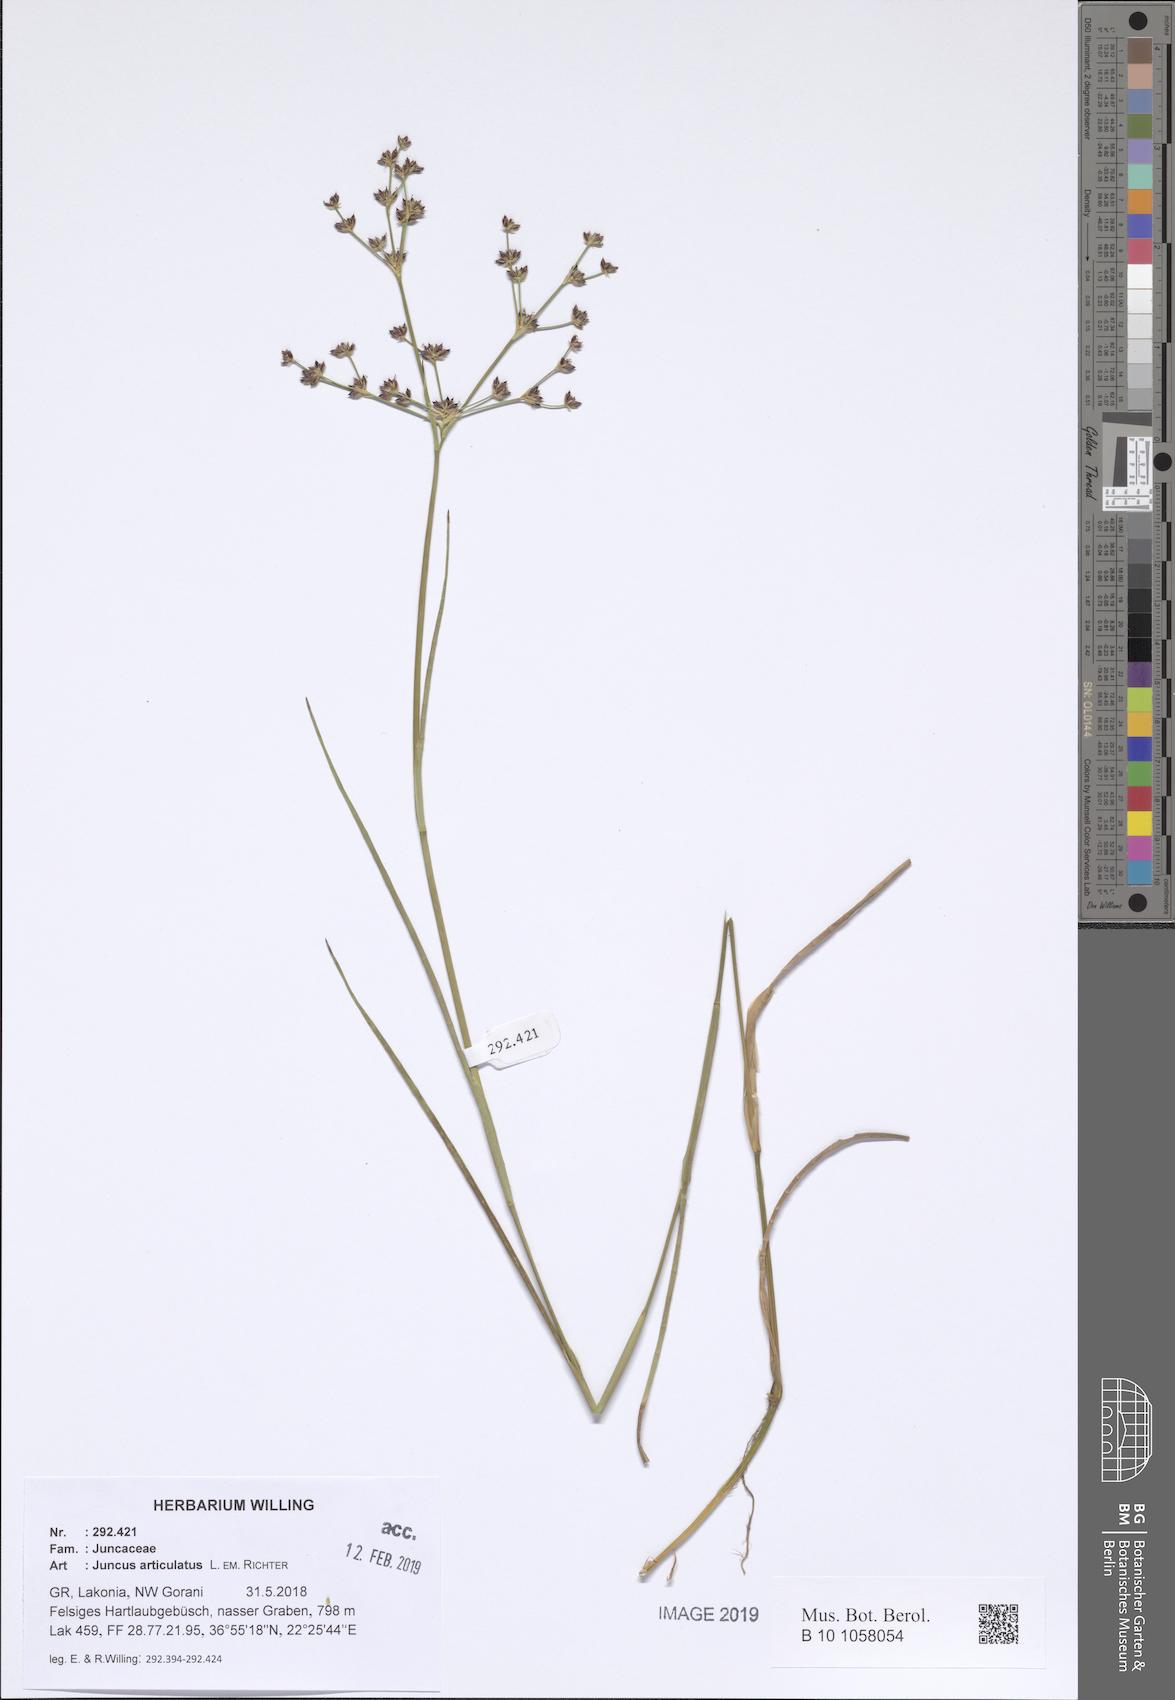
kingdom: Plantae
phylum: Tracheophyta
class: Liliopsida
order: Poales
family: Juncaceae
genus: Juncus
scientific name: Juncus articulatus
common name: Jointed rush
